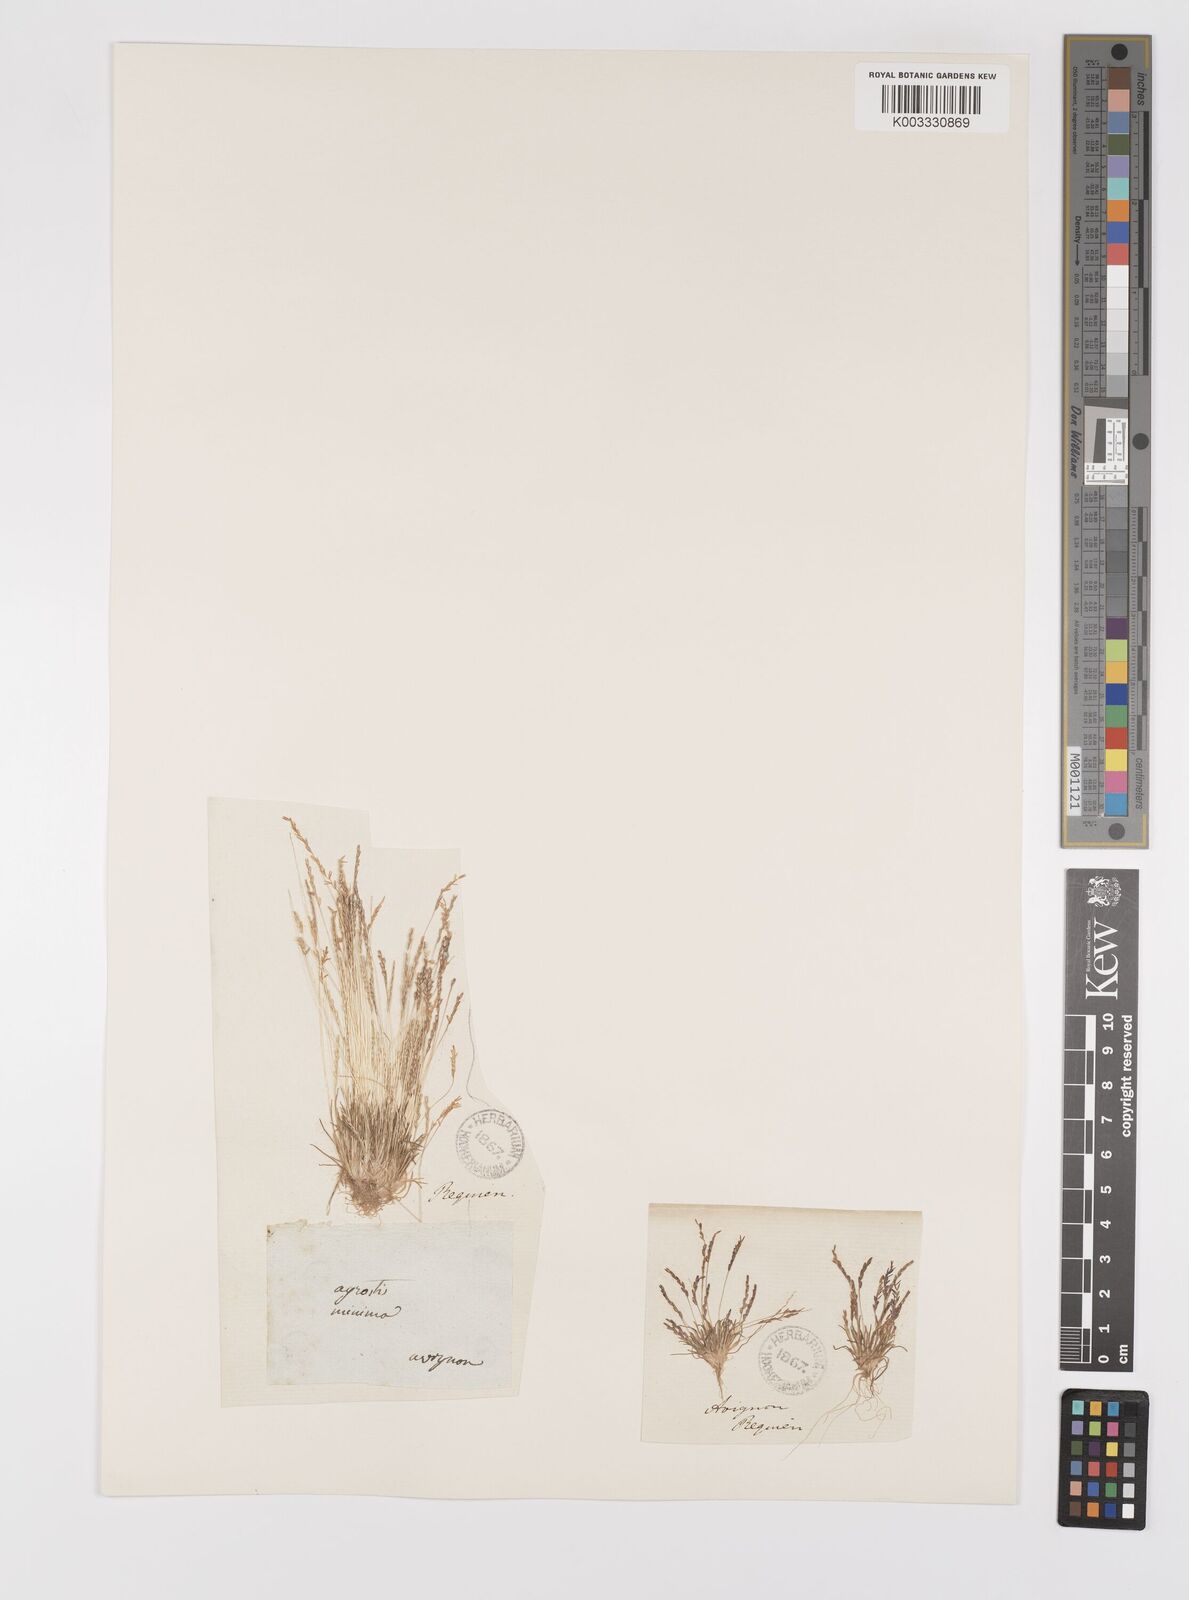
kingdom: Plantae
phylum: Tracheophyta
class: Liliopsida
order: Poales
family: Poaceae
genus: Mibora
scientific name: Mibora minima
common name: Early sand-grass
